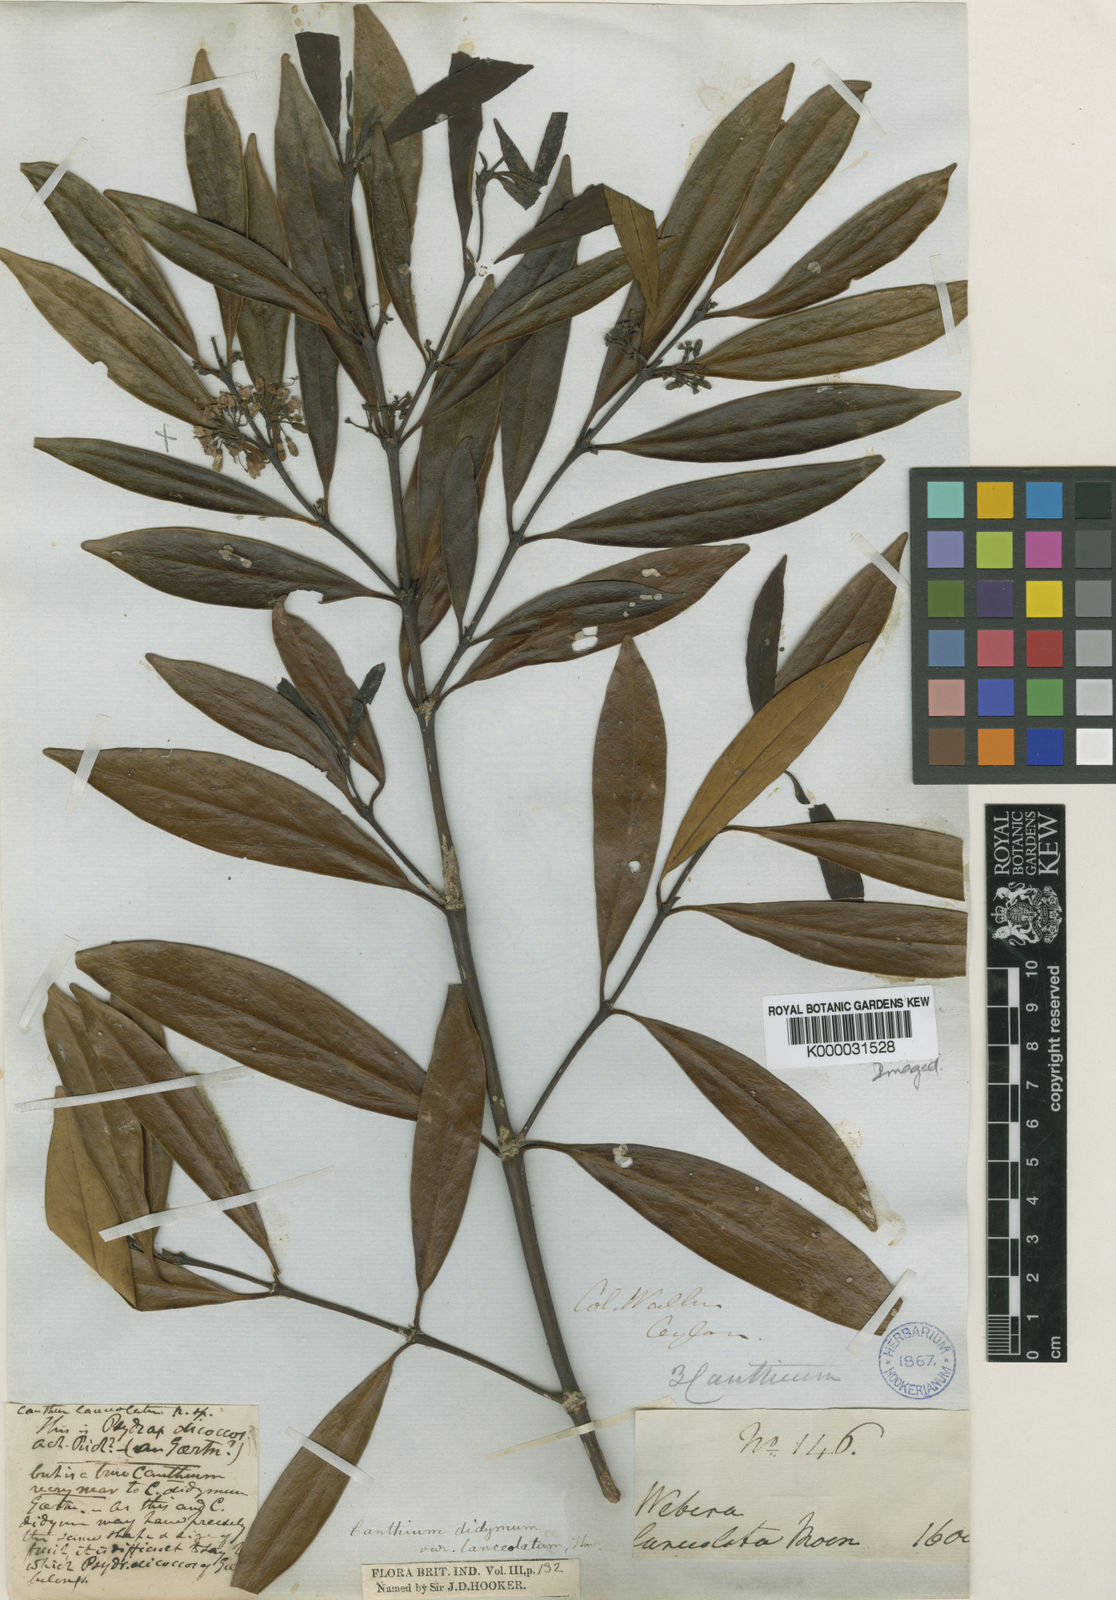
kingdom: Plantae
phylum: Tracheophyta
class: Magnoliopsida
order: Gentianales
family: Rubiaceae
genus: Psydrax
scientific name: Psydrax lanceolatus
